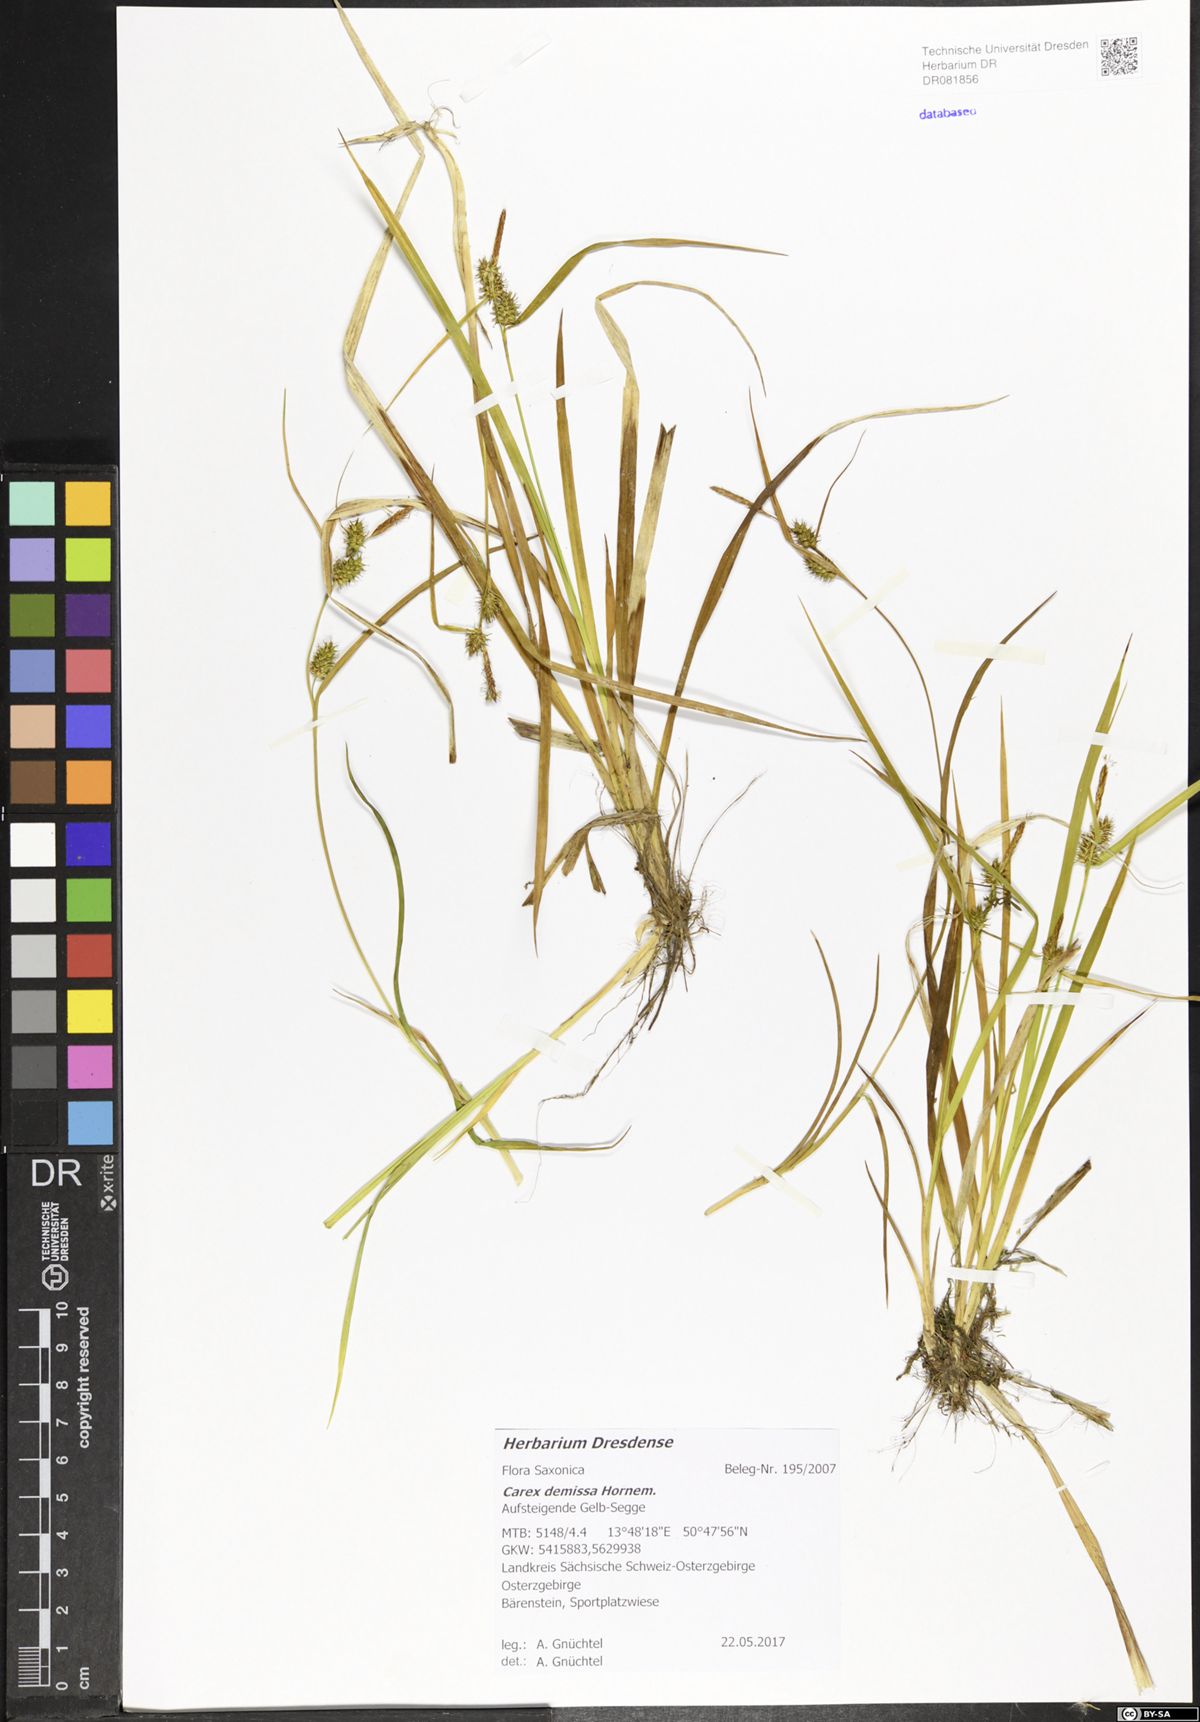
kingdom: Plantae
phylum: Tracheophyta
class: Liliopsida
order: Poales
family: Cyperaceae
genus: Carex
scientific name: Carex demissa
